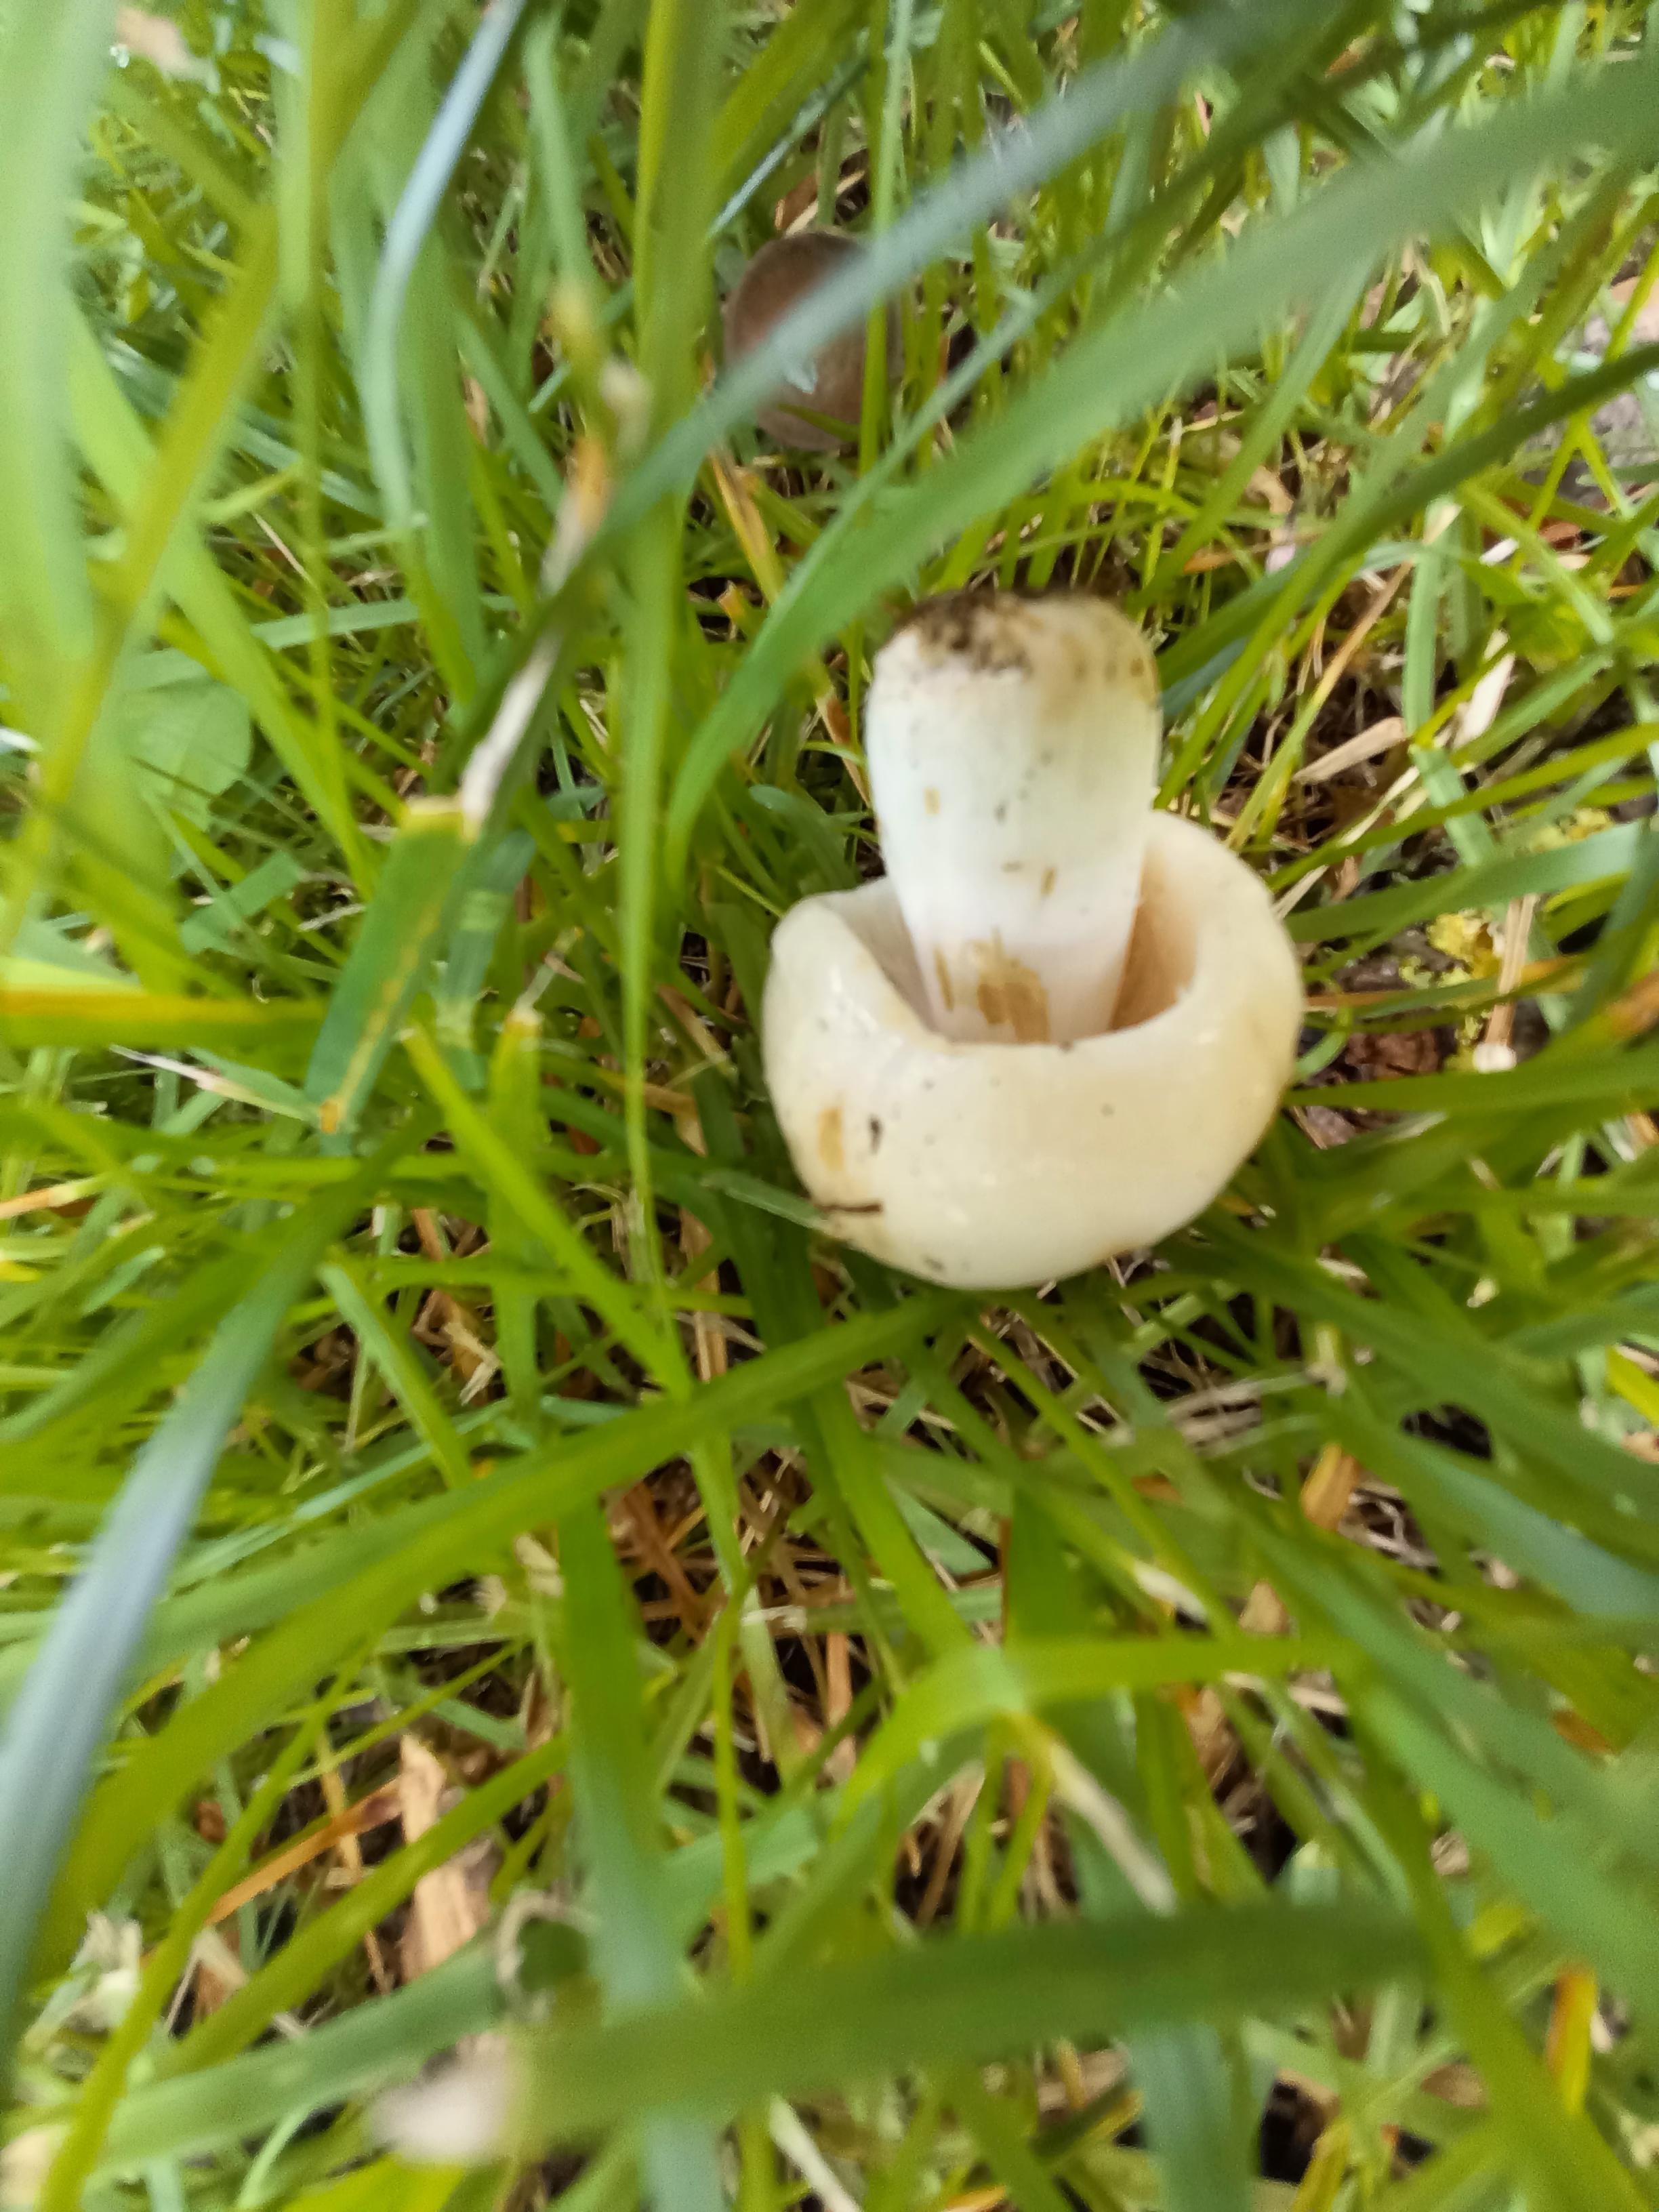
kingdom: Fungi
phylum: Basidiomycota
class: Agaricomycetes
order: Russulales
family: Russulaceae
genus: Russula
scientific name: Russula foetens
